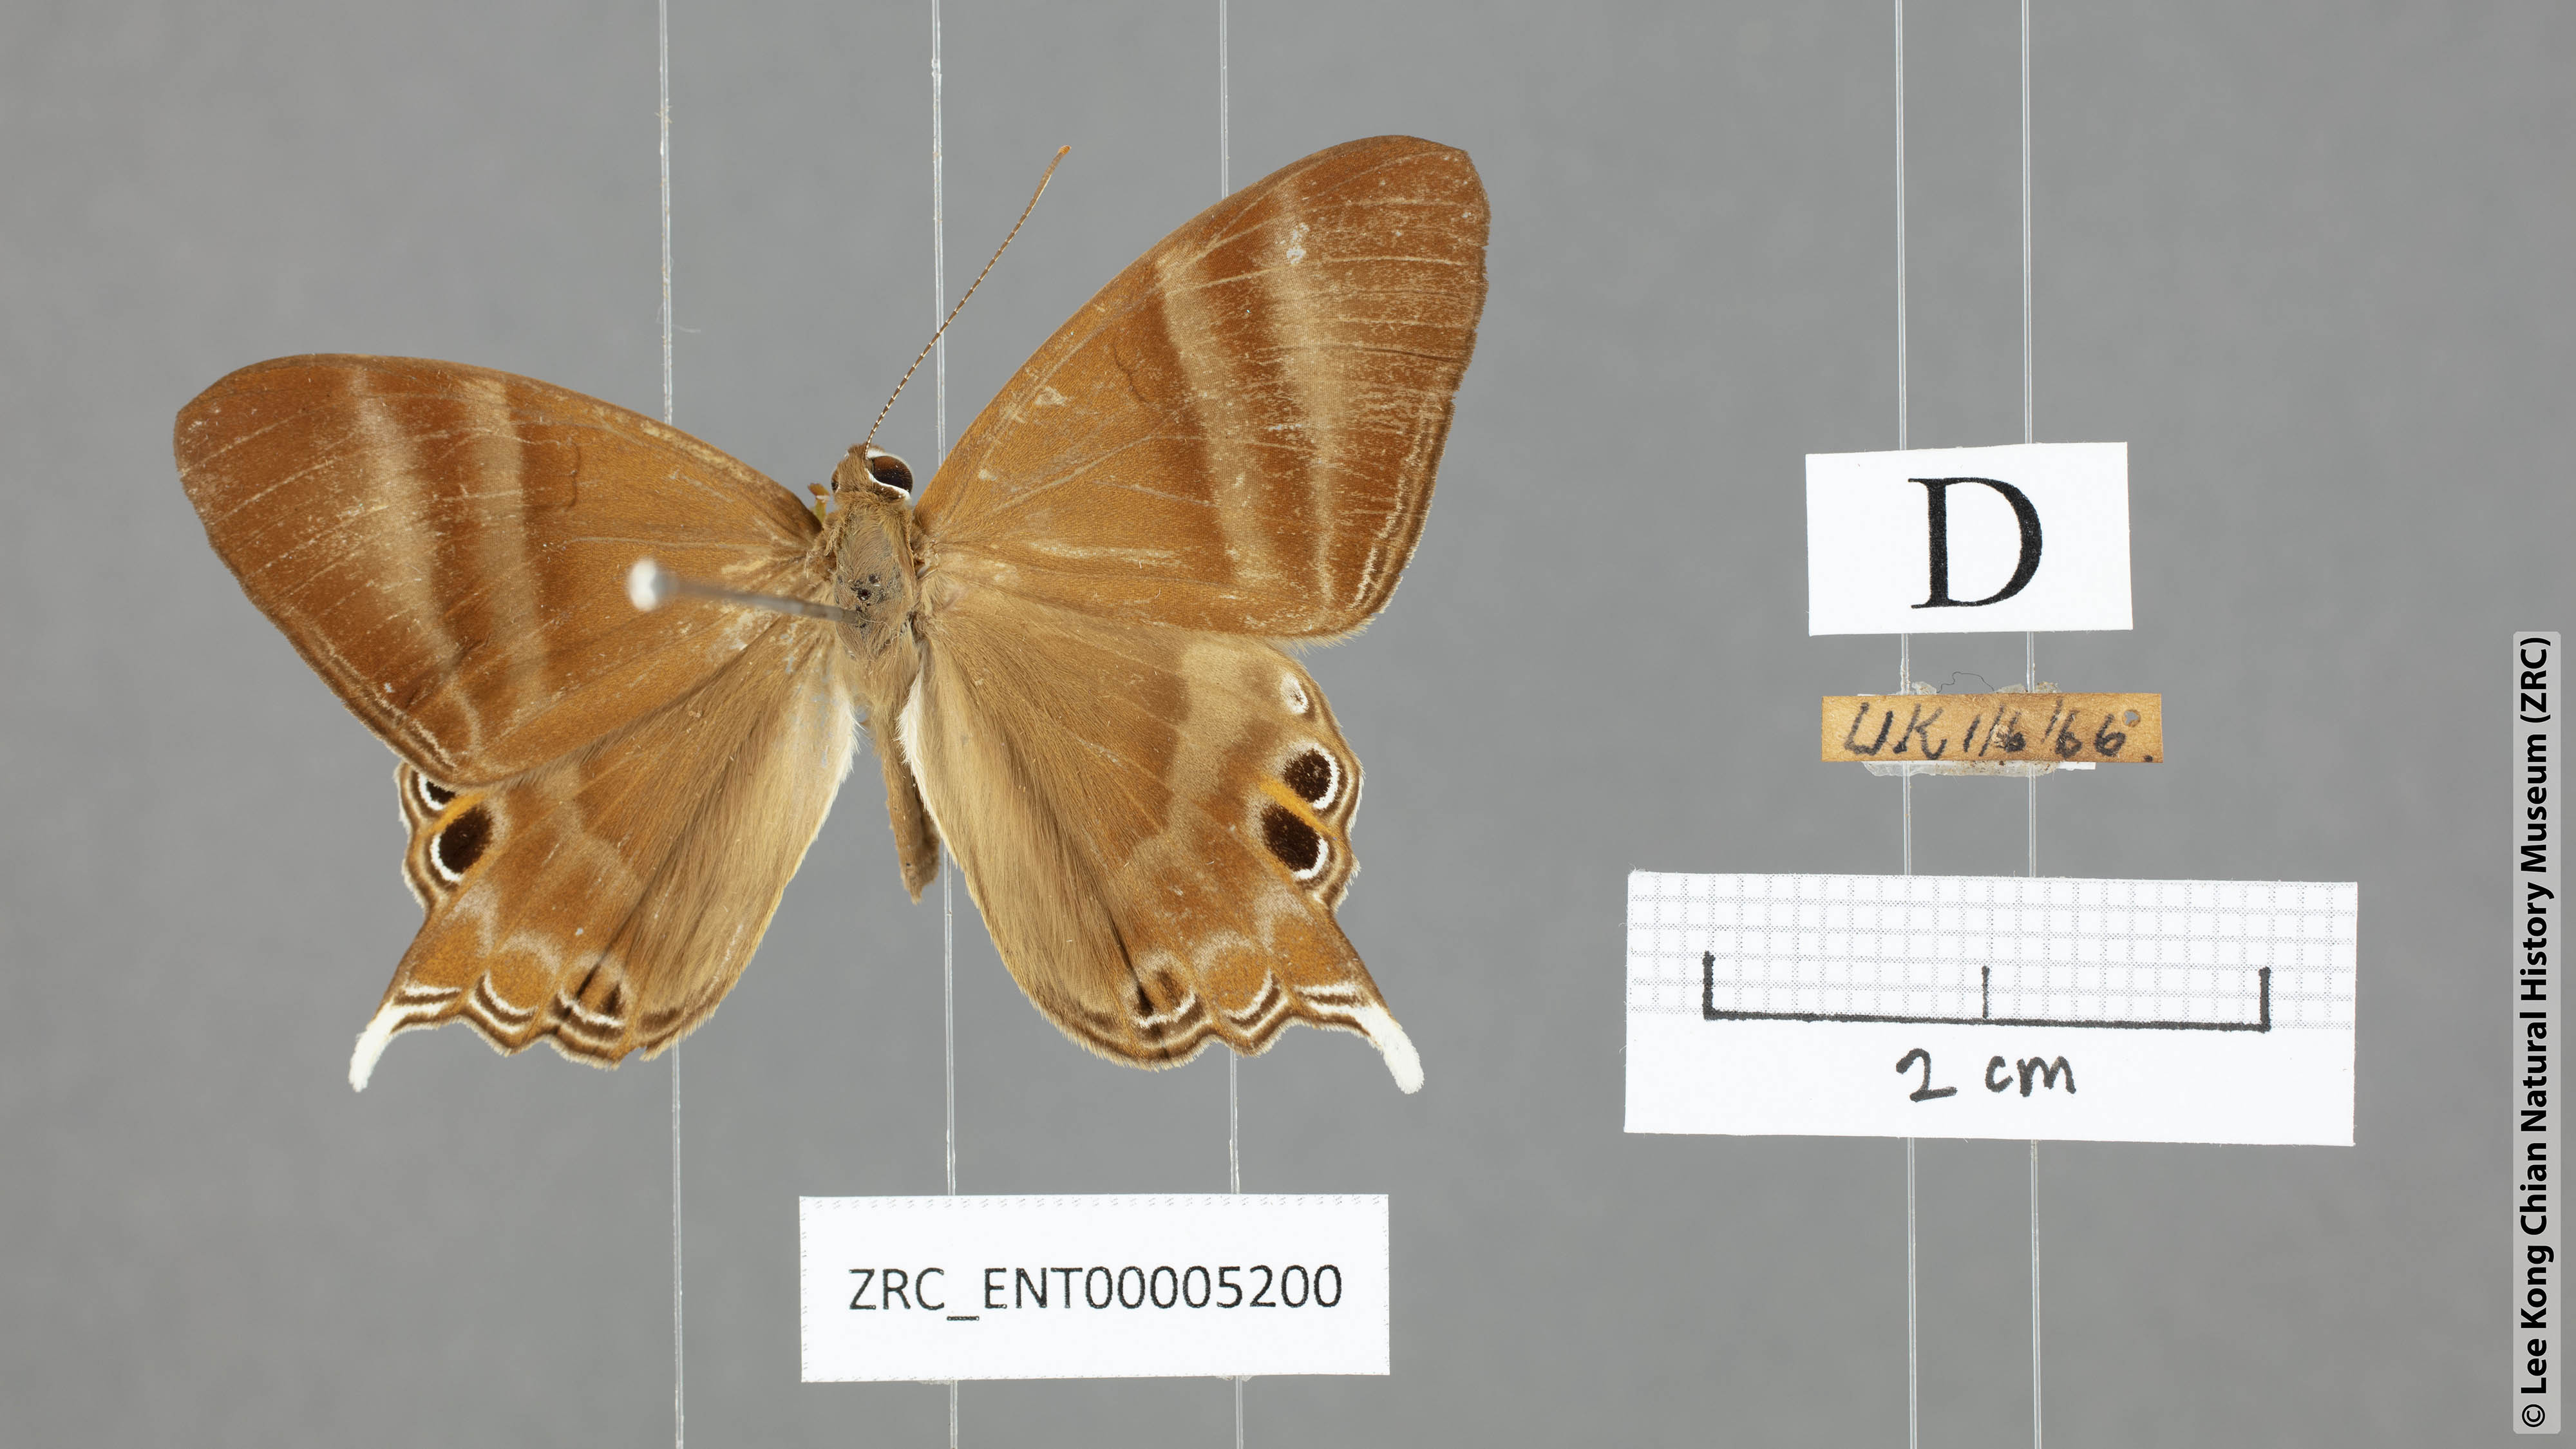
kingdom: Animalia
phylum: Arthropoda
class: Insecta
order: Lepidoptera
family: Riodinidae
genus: Archigenes
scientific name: Archigenes savitri
